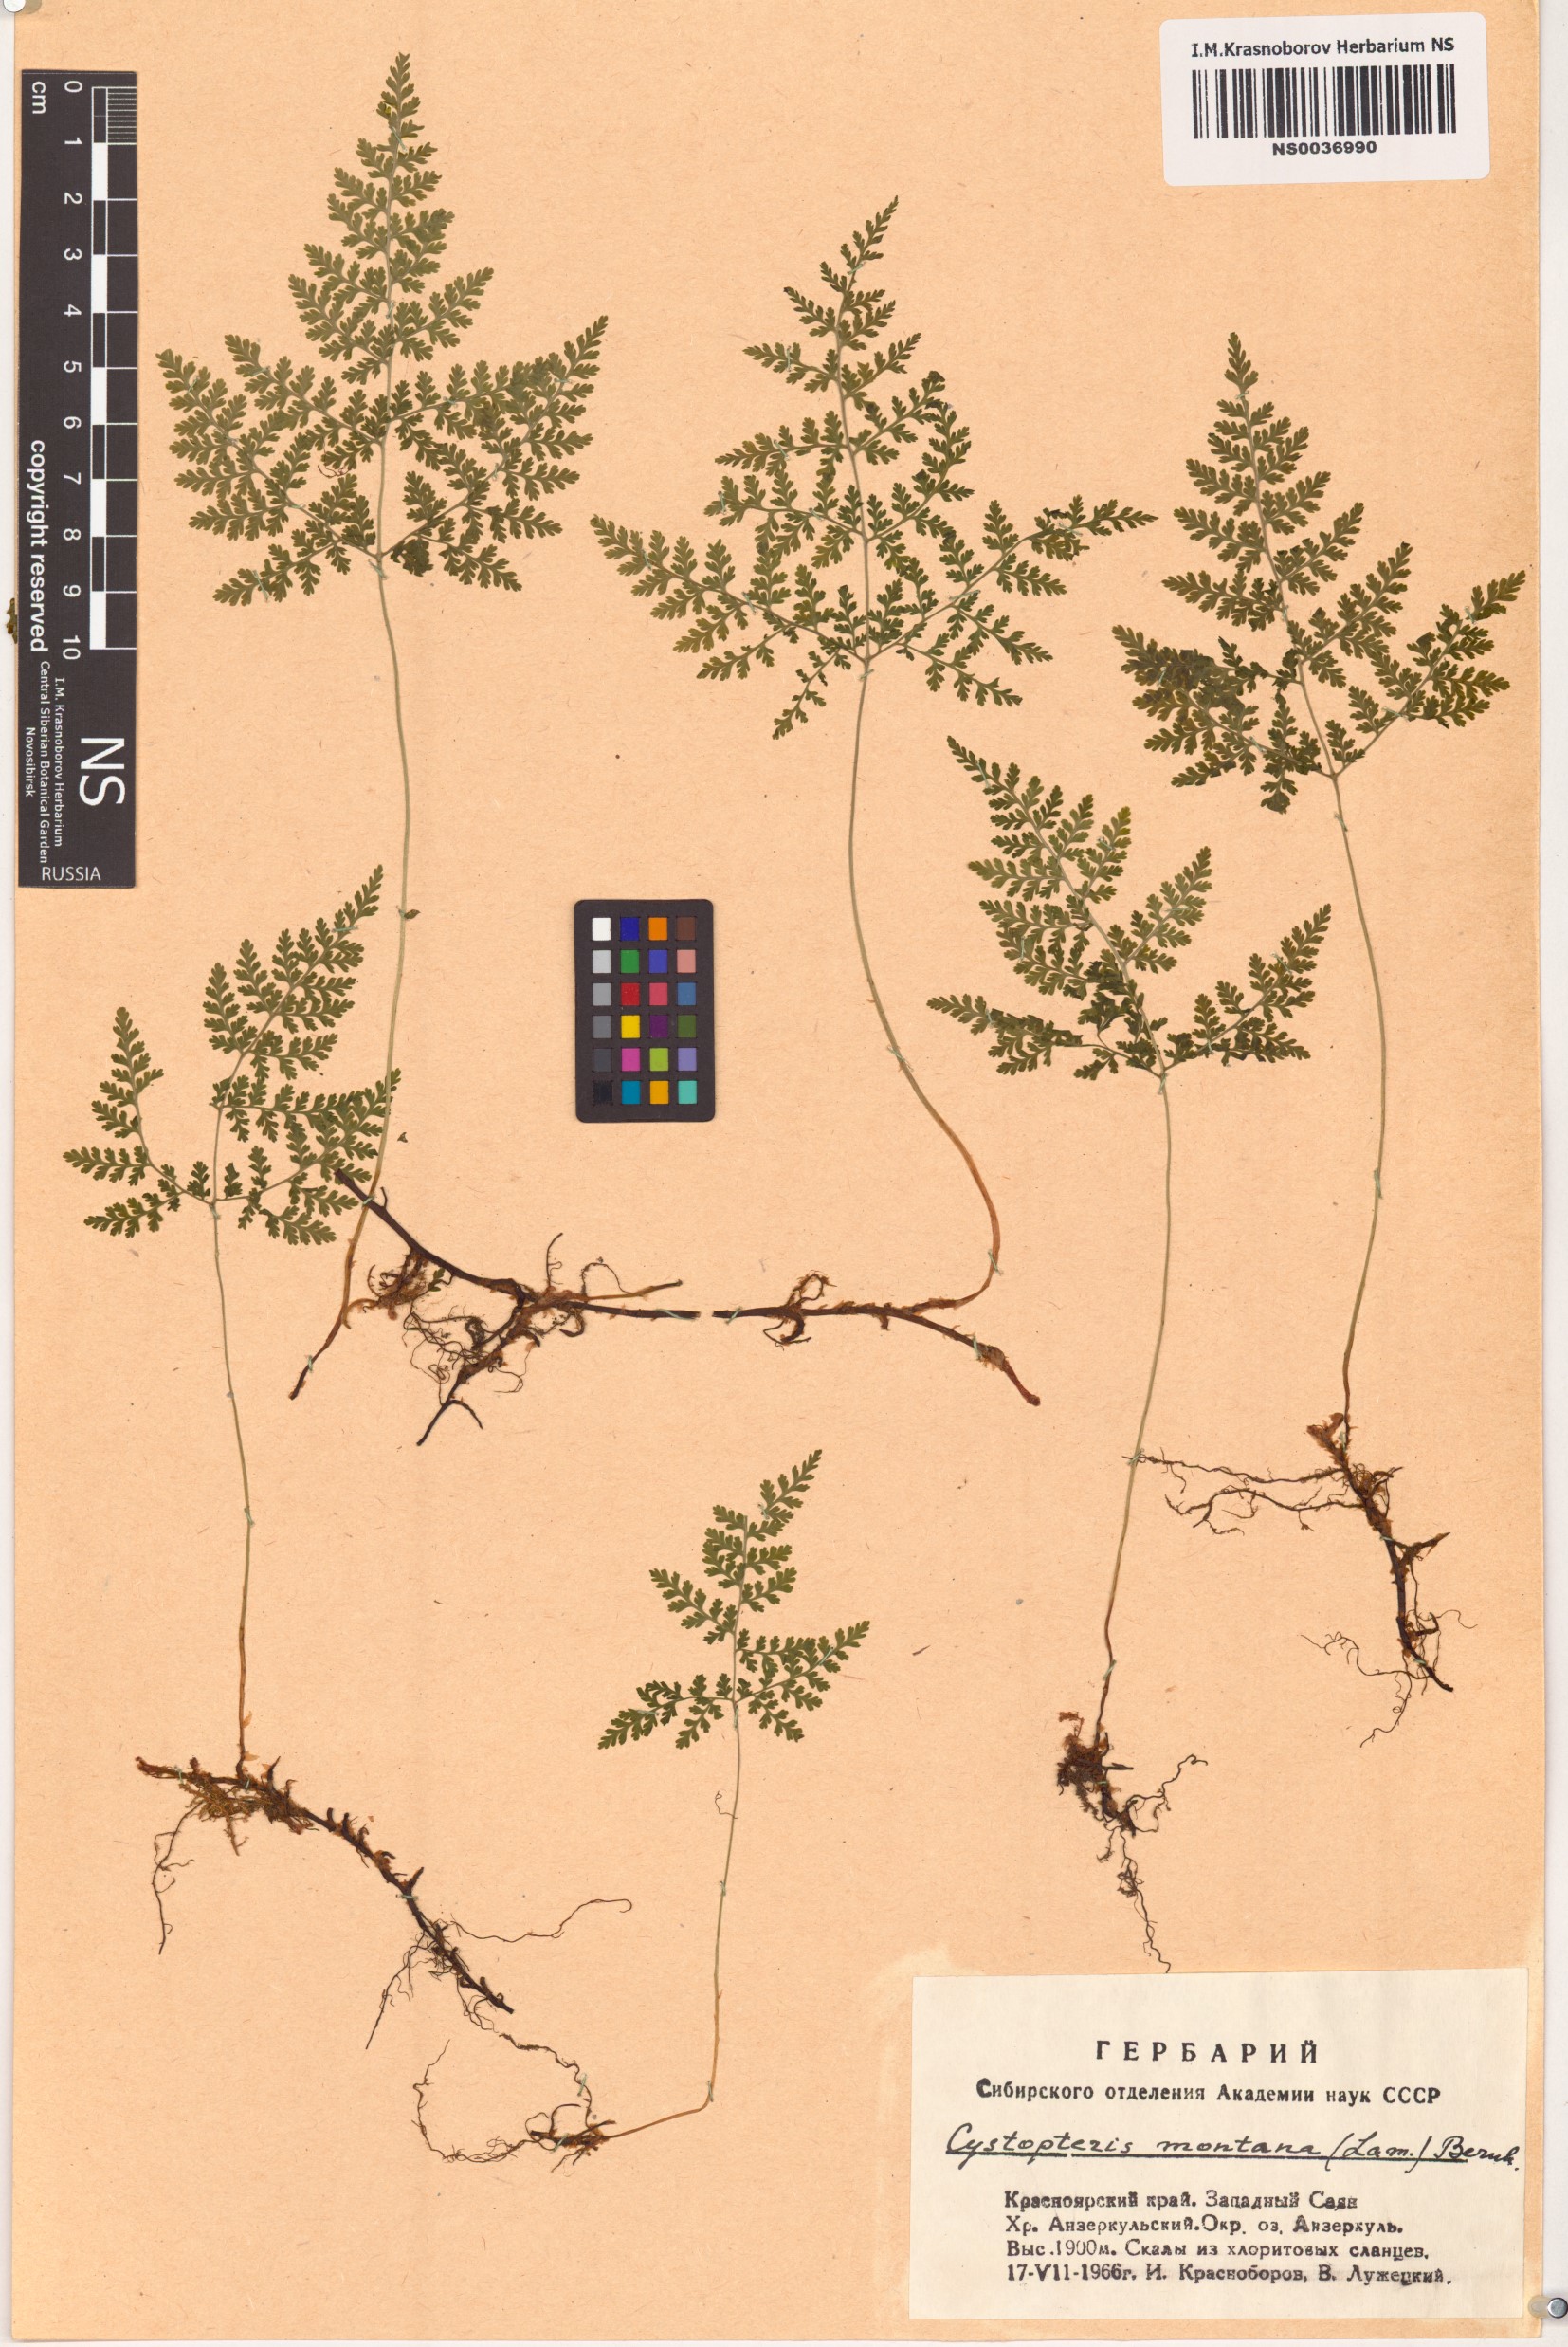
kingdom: Plantae
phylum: Tracheophyta
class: Polypodiopsida
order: Polypodiales
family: Cystopteridaceae
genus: Cystopteris
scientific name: Cystopteris montana
